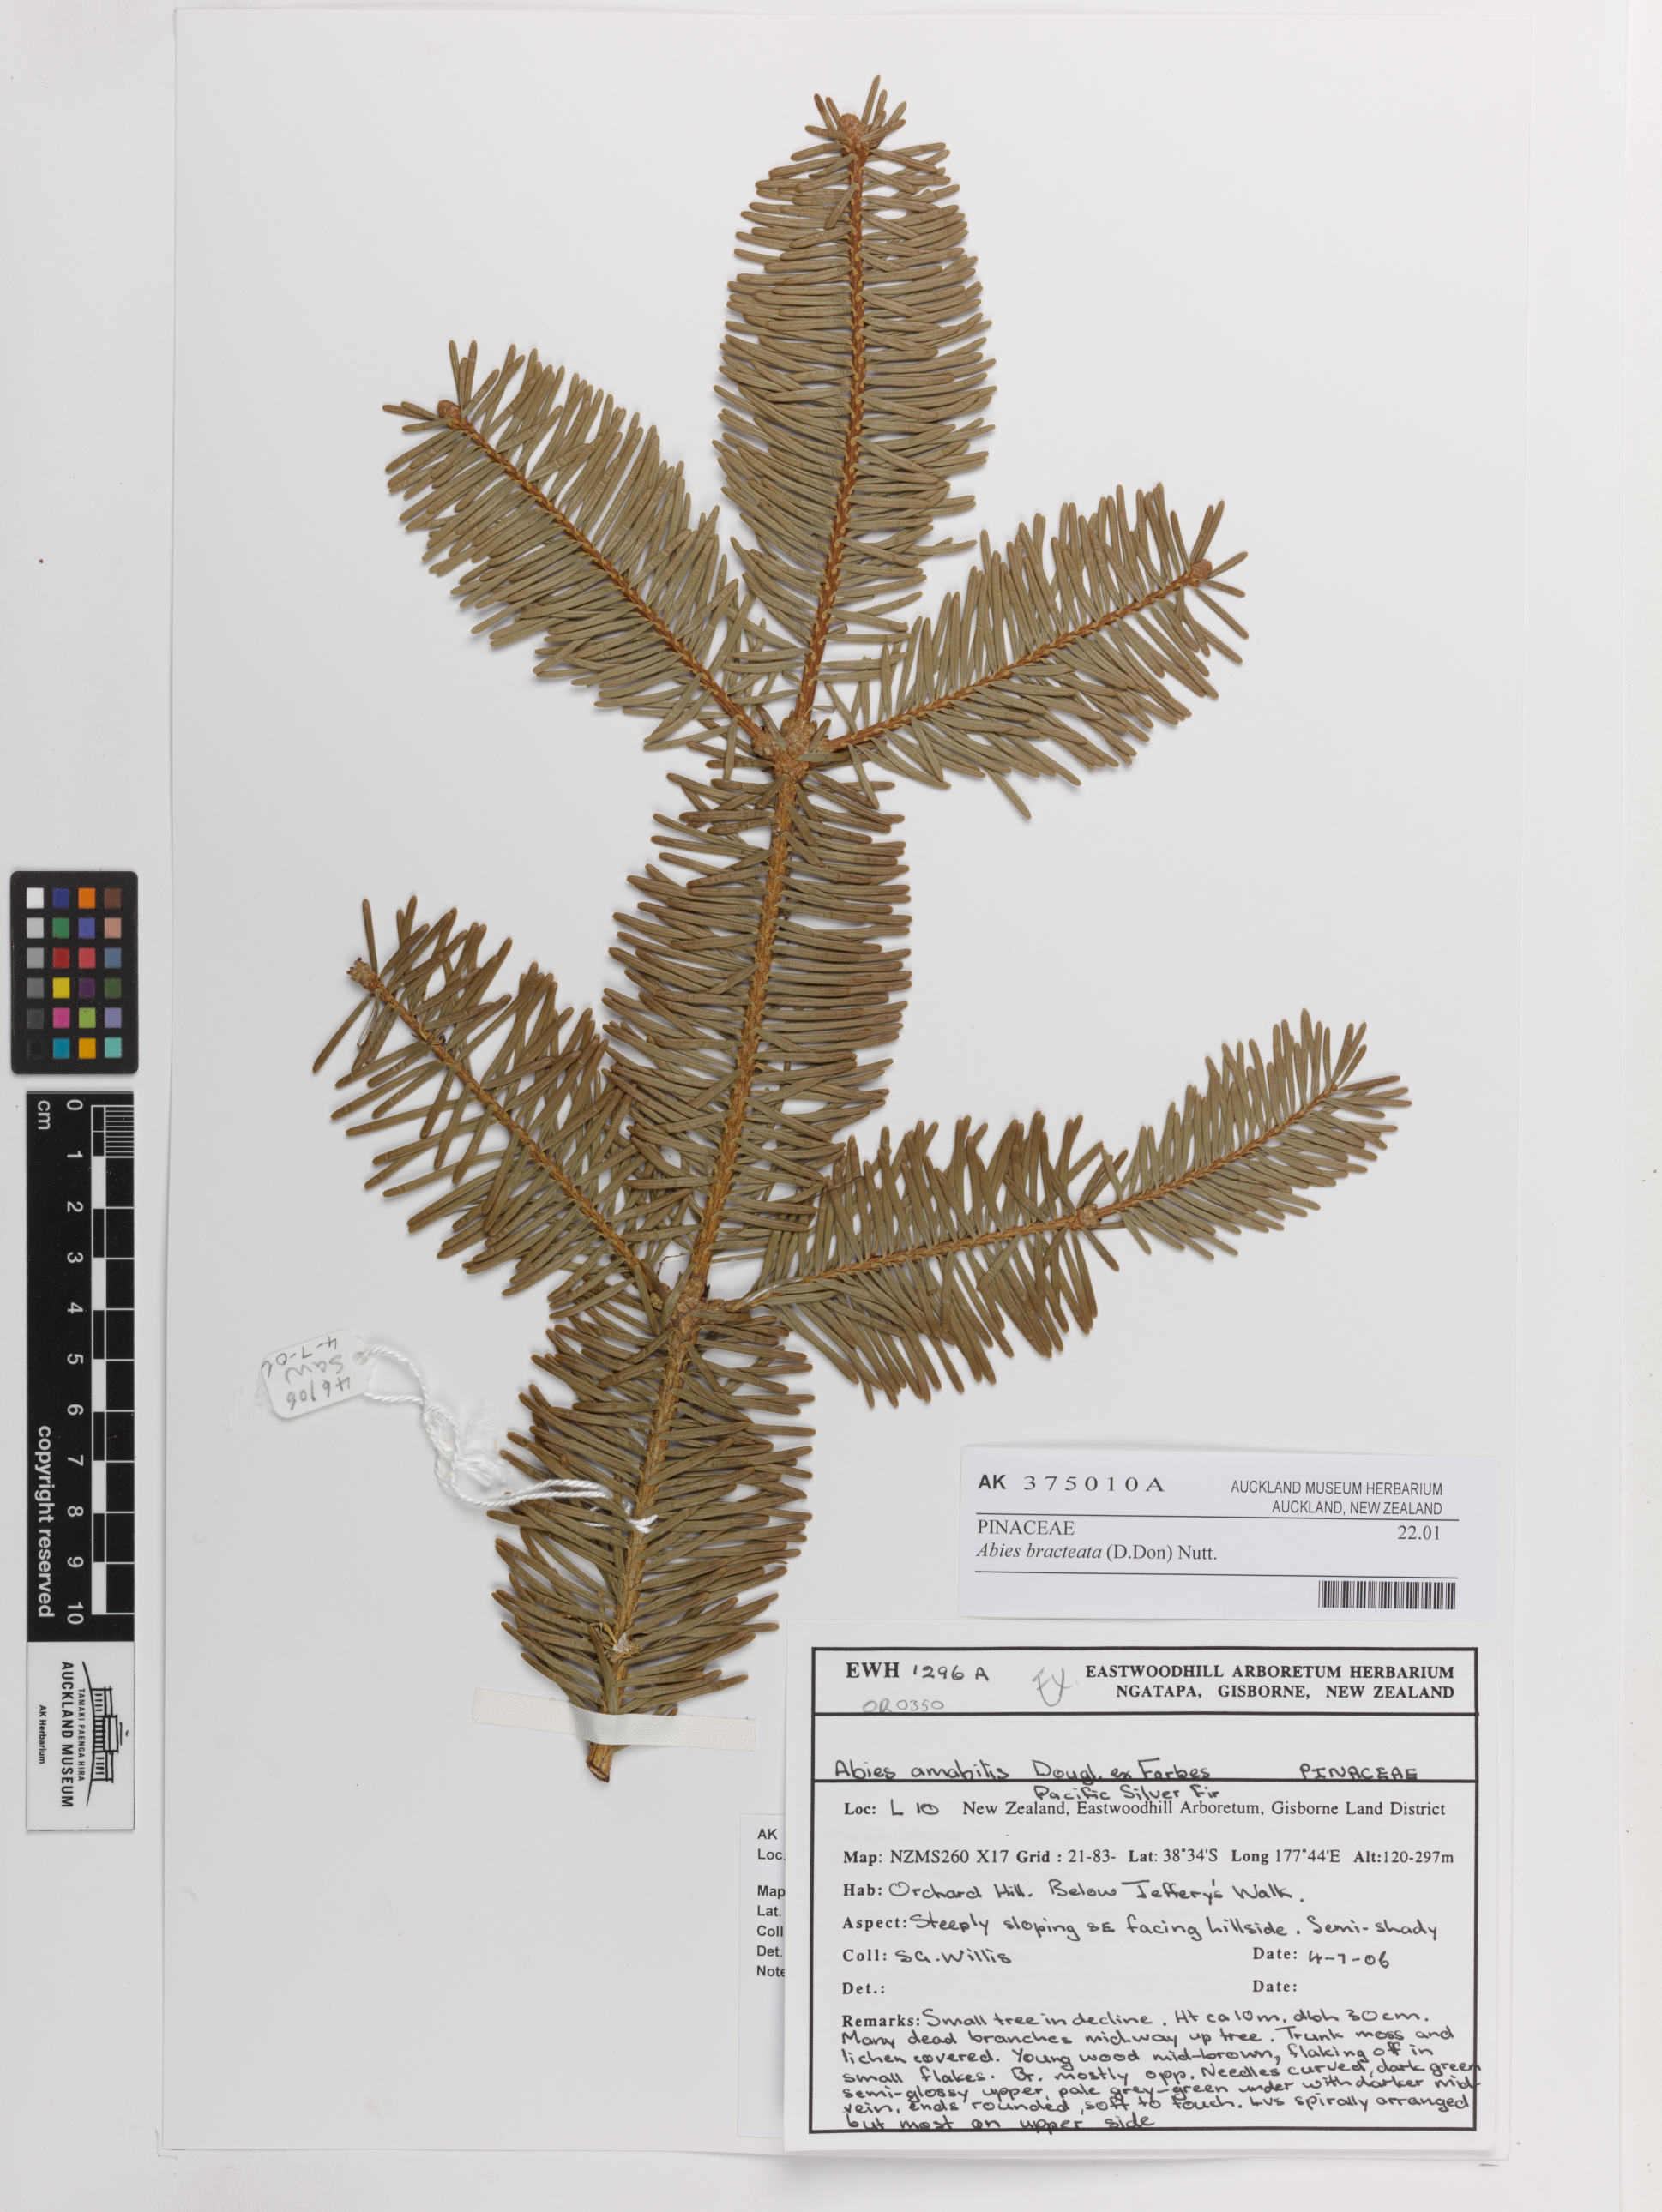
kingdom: Plantae
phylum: Tracheophyta
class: Pinopsida
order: Pinales
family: Pinaceae
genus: Abies
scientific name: Abies bracteata
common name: Bristlecone fir
